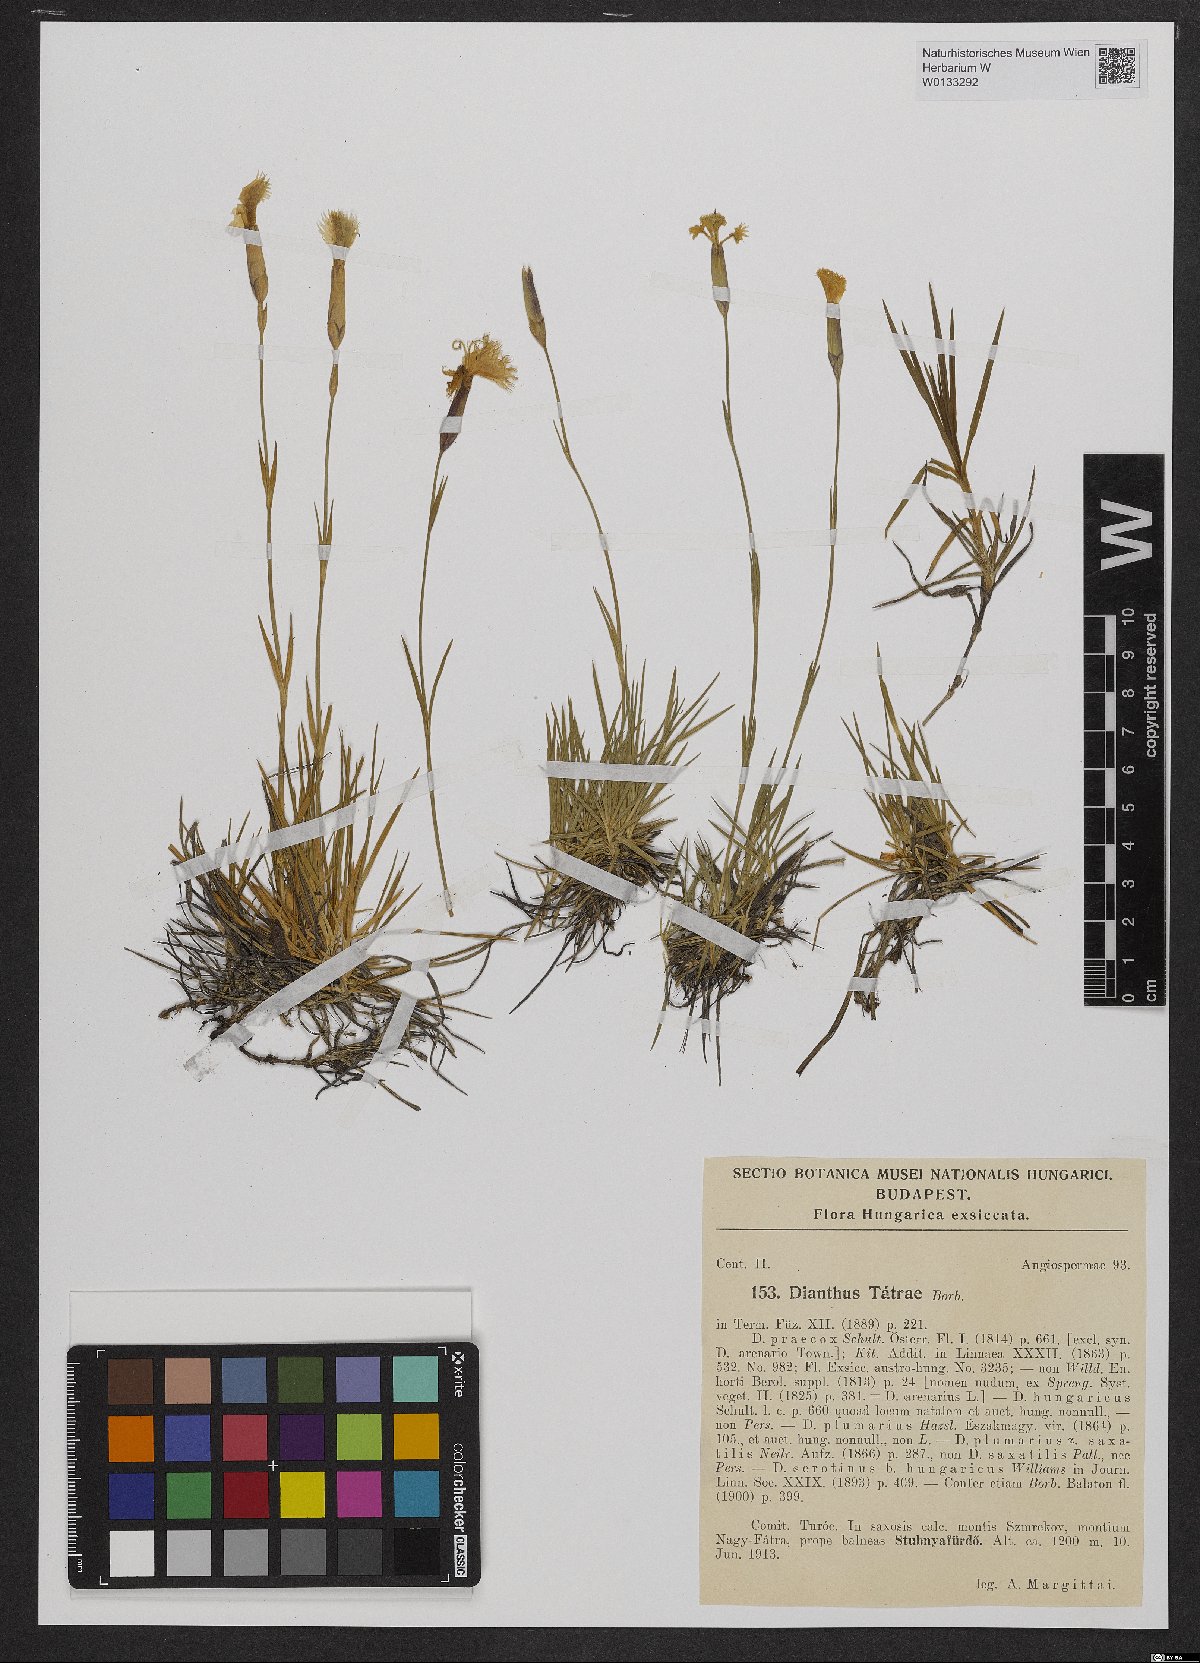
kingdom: Plantae
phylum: Tracheophyta
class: Magnoliopsida
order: Caryophyllales
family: Caryophyllaceae
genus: Dianthus
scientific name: Dianthus tatrae
